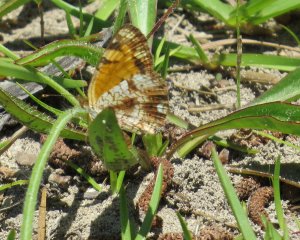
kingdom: Animalia
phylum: Arthropoda
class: Insecta
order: Lepidoptera
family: Nymphalidae
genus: Phyciodes
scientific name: Phyciodes tharos
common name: Pearl Crescent
